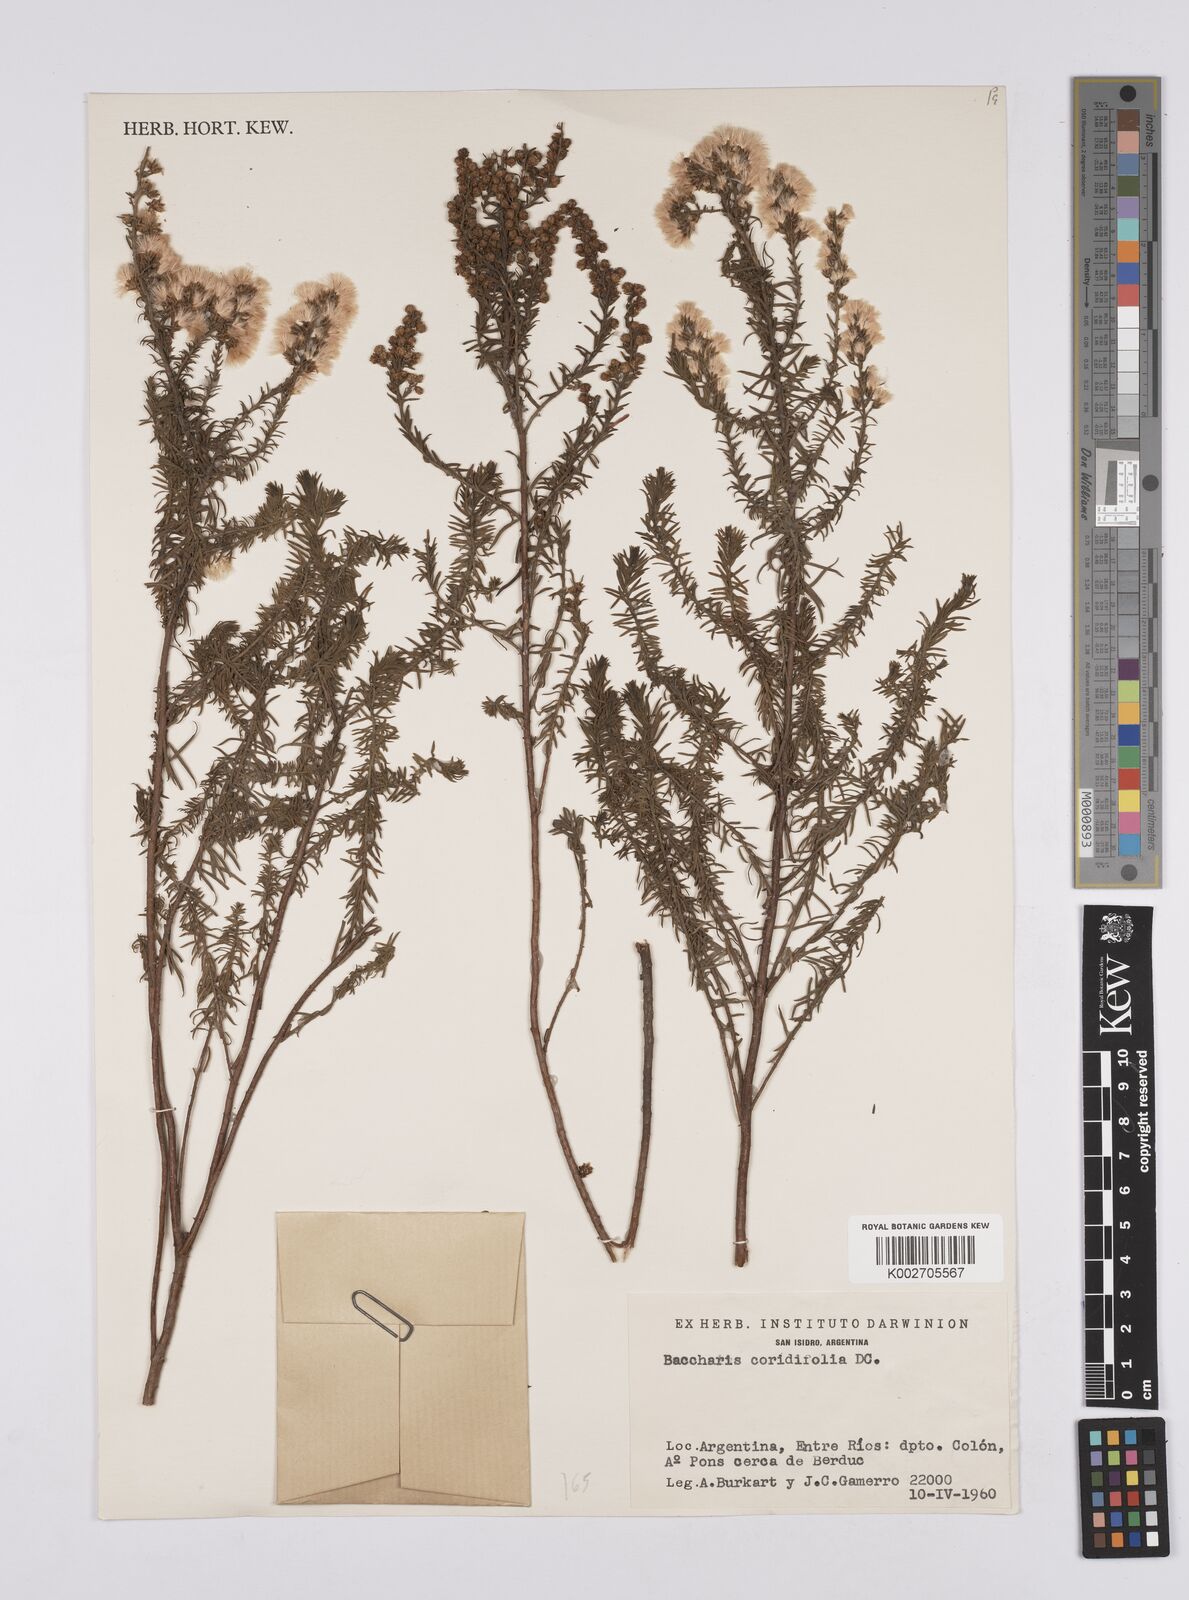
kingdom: Plantae
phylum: Tracheophyta
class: Magnoliopsida
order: Asterales
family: Asteraceae
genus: Baccharis
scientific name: Baccharis salicifolia
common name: Sticky baccharis
